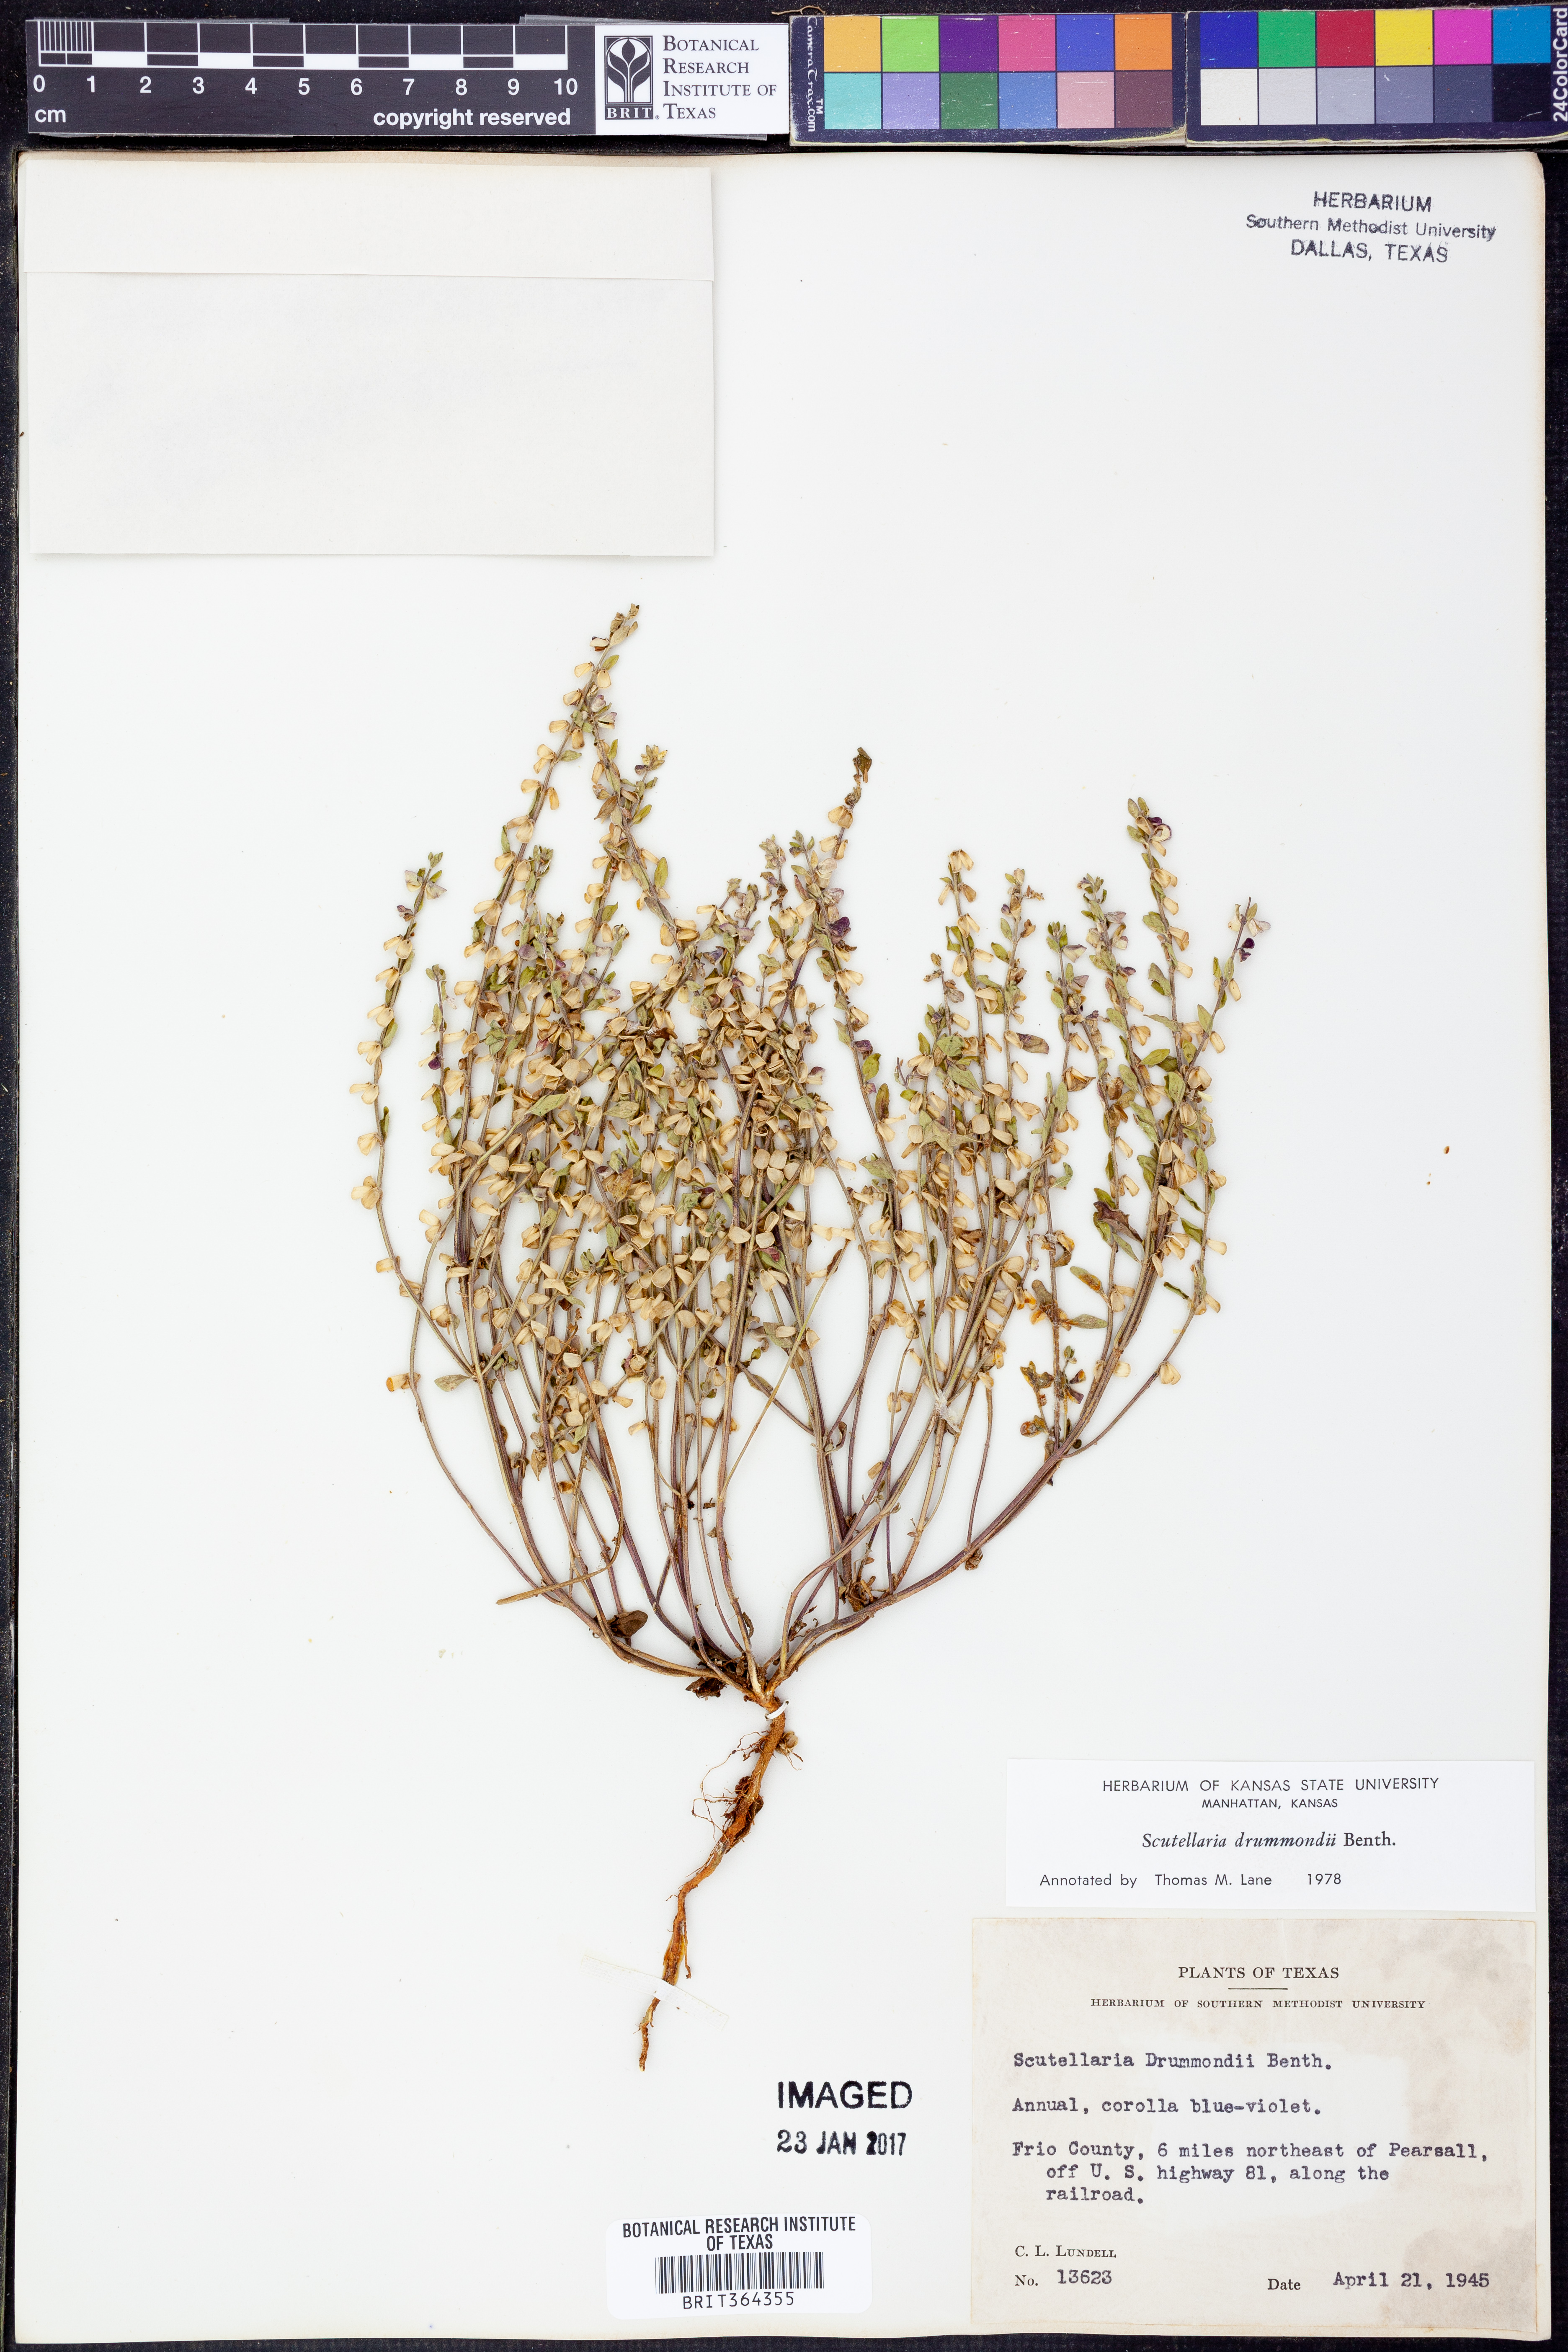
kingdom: Plantae
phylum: Tracheophyta
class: Magnoliopsida
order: Lamiales
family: Lamiaceae
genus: Scutellaria
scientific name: Scutellaria drummondii
